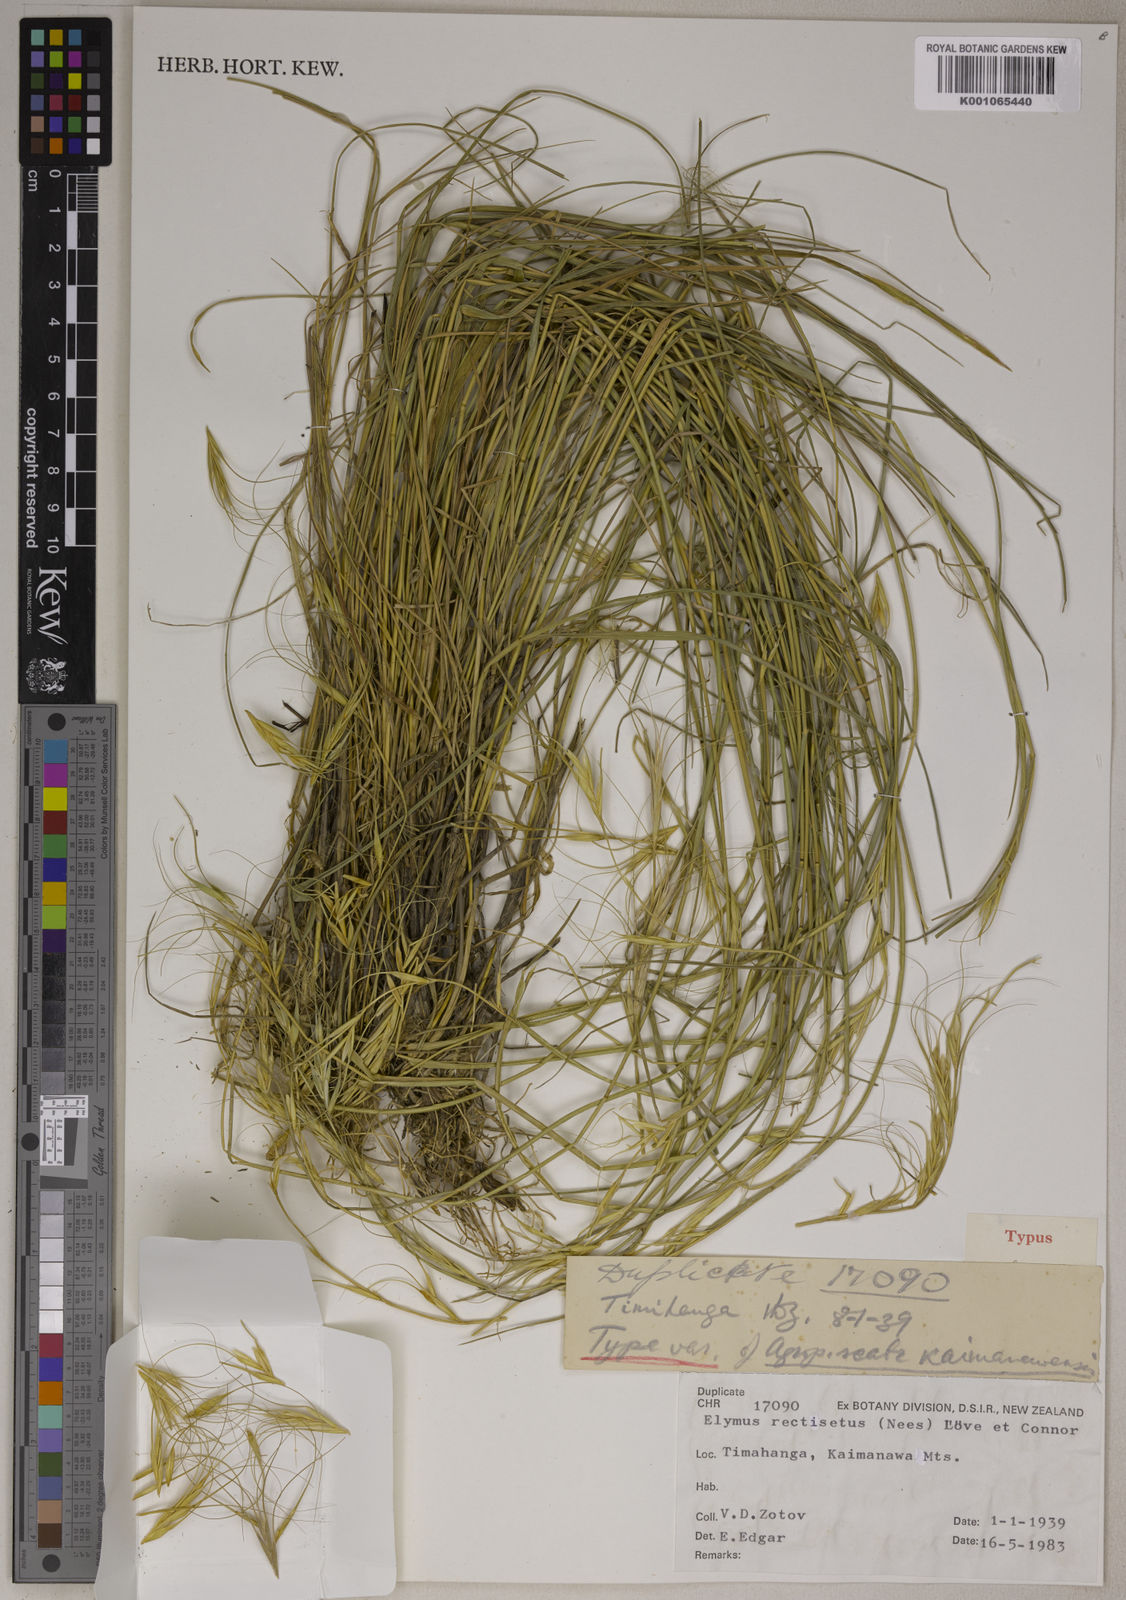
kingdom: Plantae
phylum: Tracheophyta
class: Liliopsida
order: Poales
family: Poaceae
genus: Elymus
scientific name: Elymus
